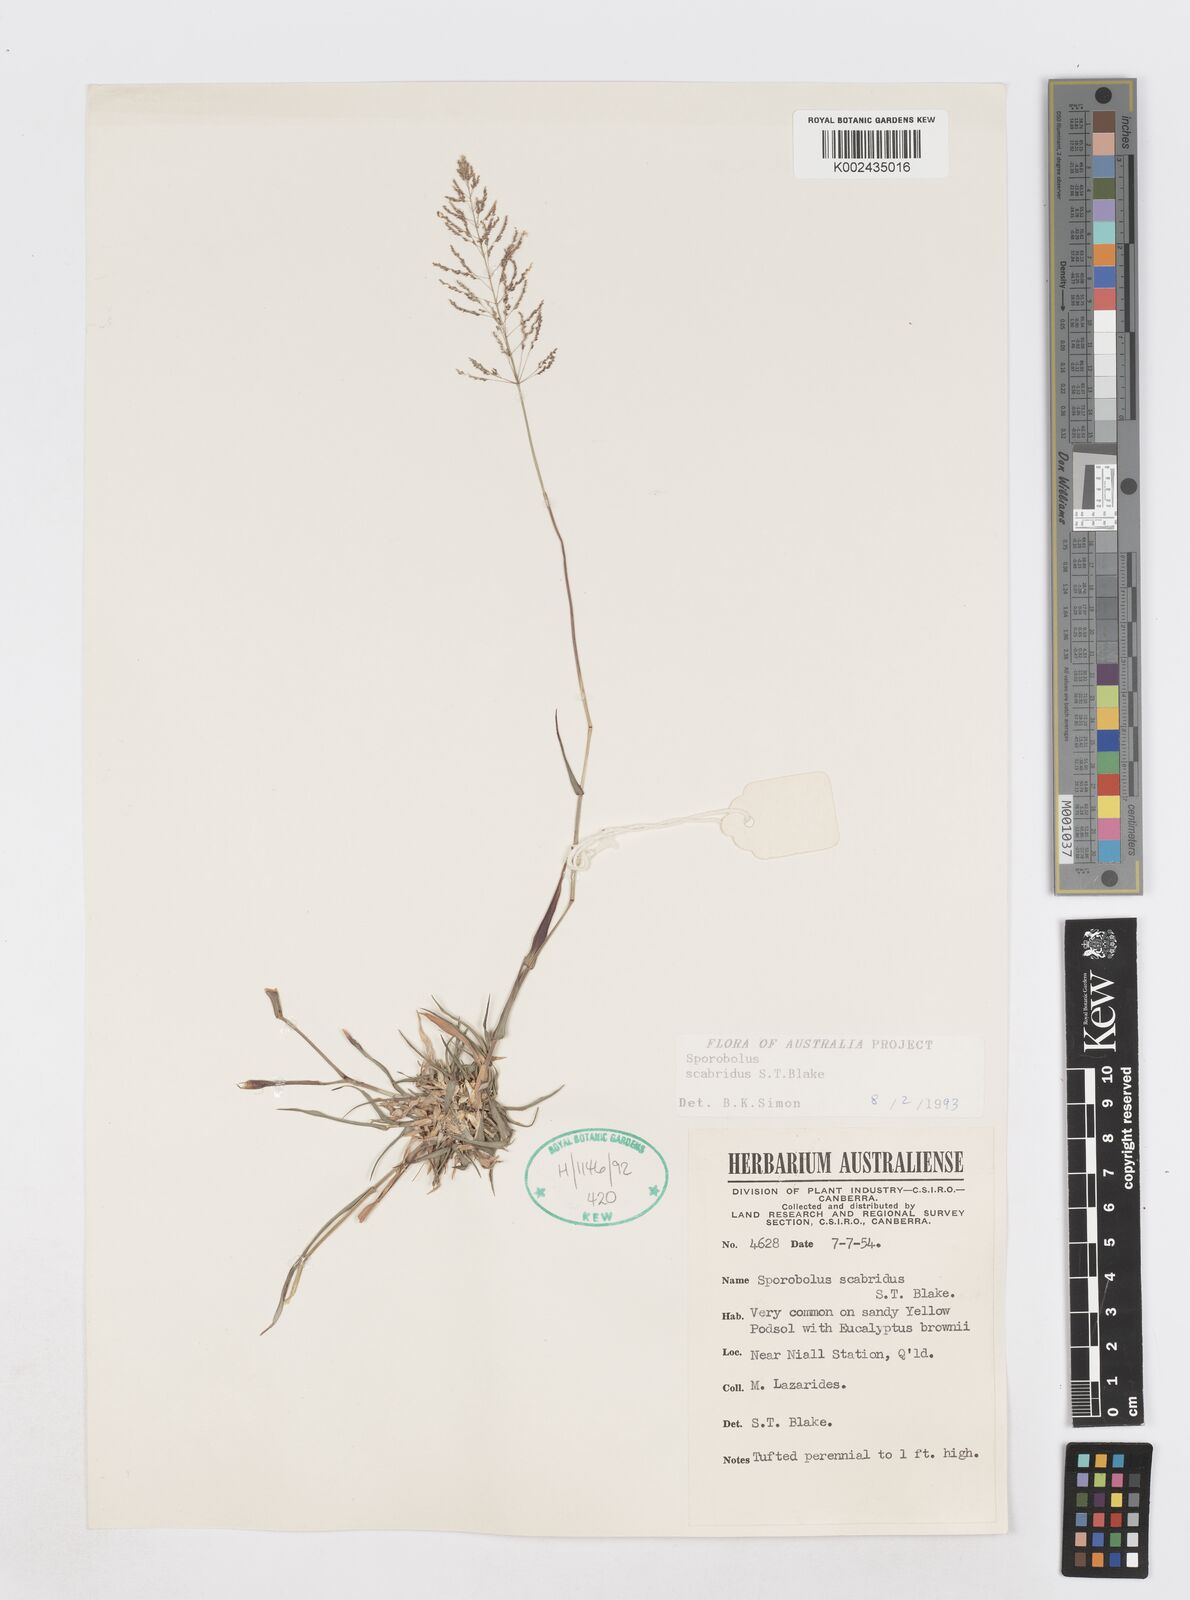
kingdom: Plantae
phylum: Tracheophyta
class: Liliopsida
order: Poales
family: Poaceae
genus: Sporobolus
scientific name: Sporobolus scabridus
